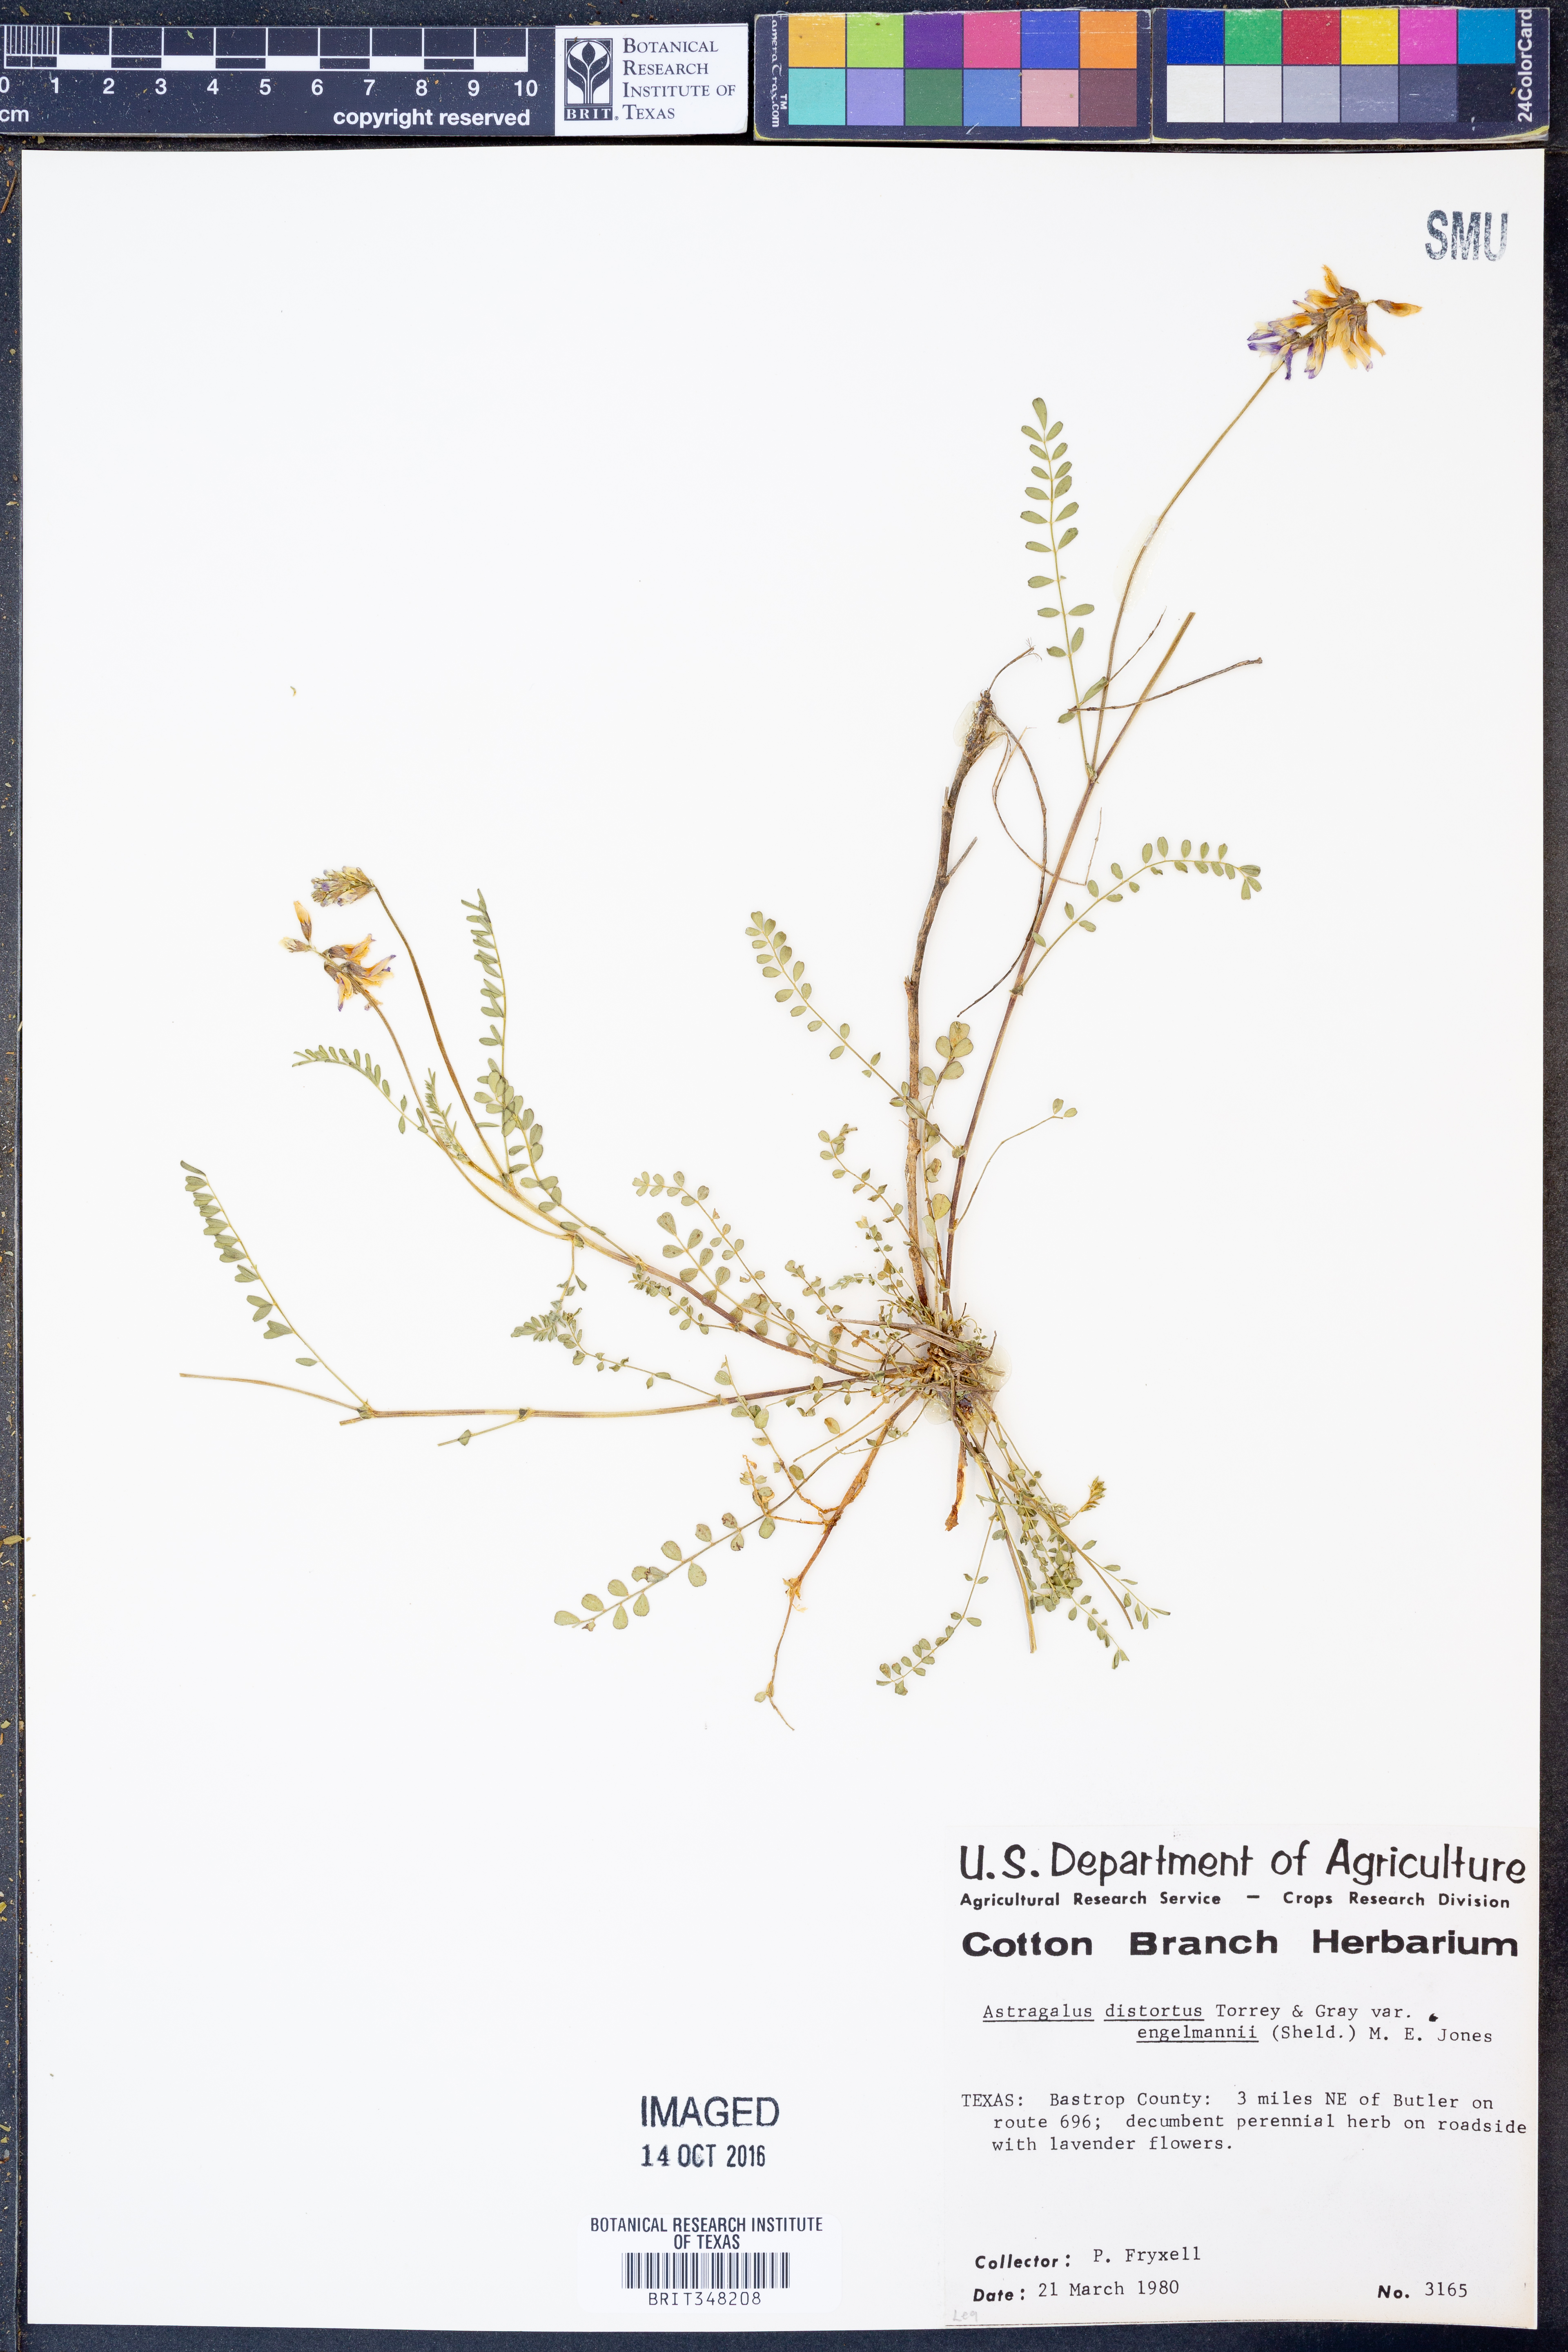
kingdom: Plantae
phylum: Tracheophyta
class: Magnoliopsida
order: Fabales
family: Fabaceae
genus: Astragalus
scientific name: Astragalus distortus
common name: Ozark milk-vetch
